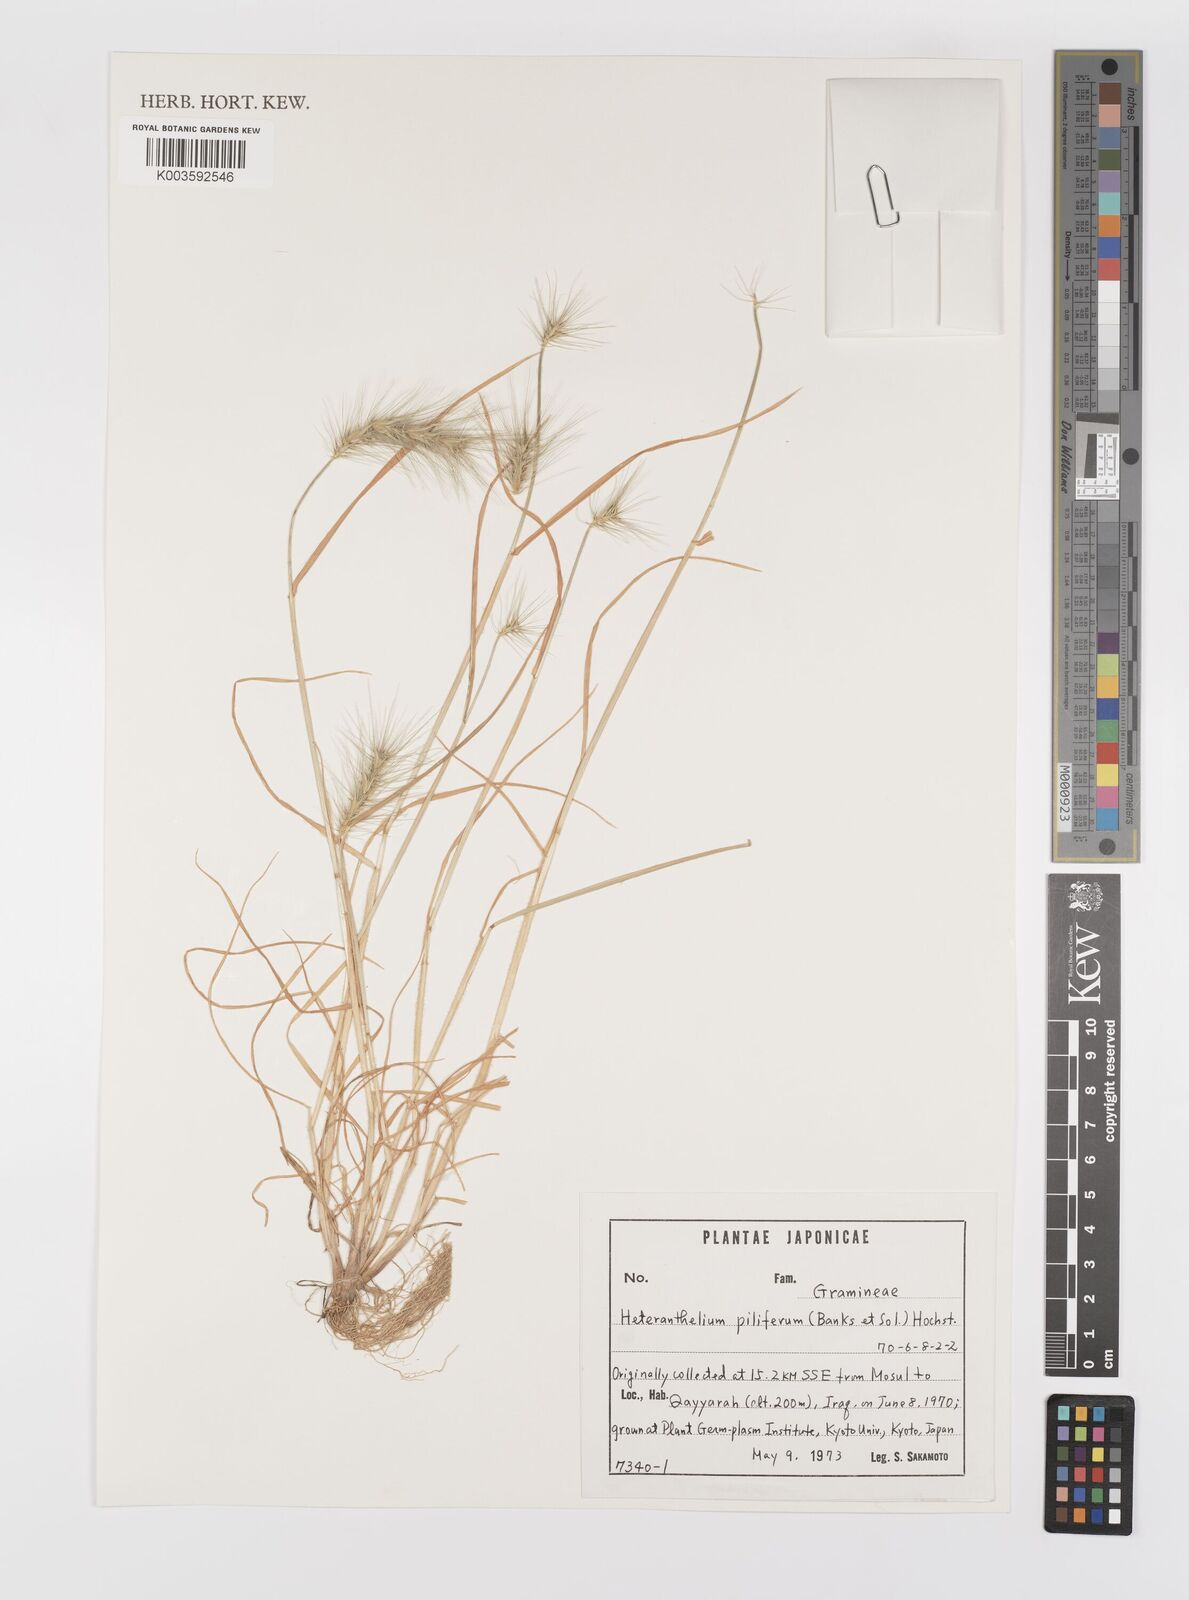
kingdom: Plantae
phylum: Tracheophyta
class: Liliopsida
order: Poales
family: Poaceae
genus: Heteranthelium
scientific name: Heteranthelium piliferum
